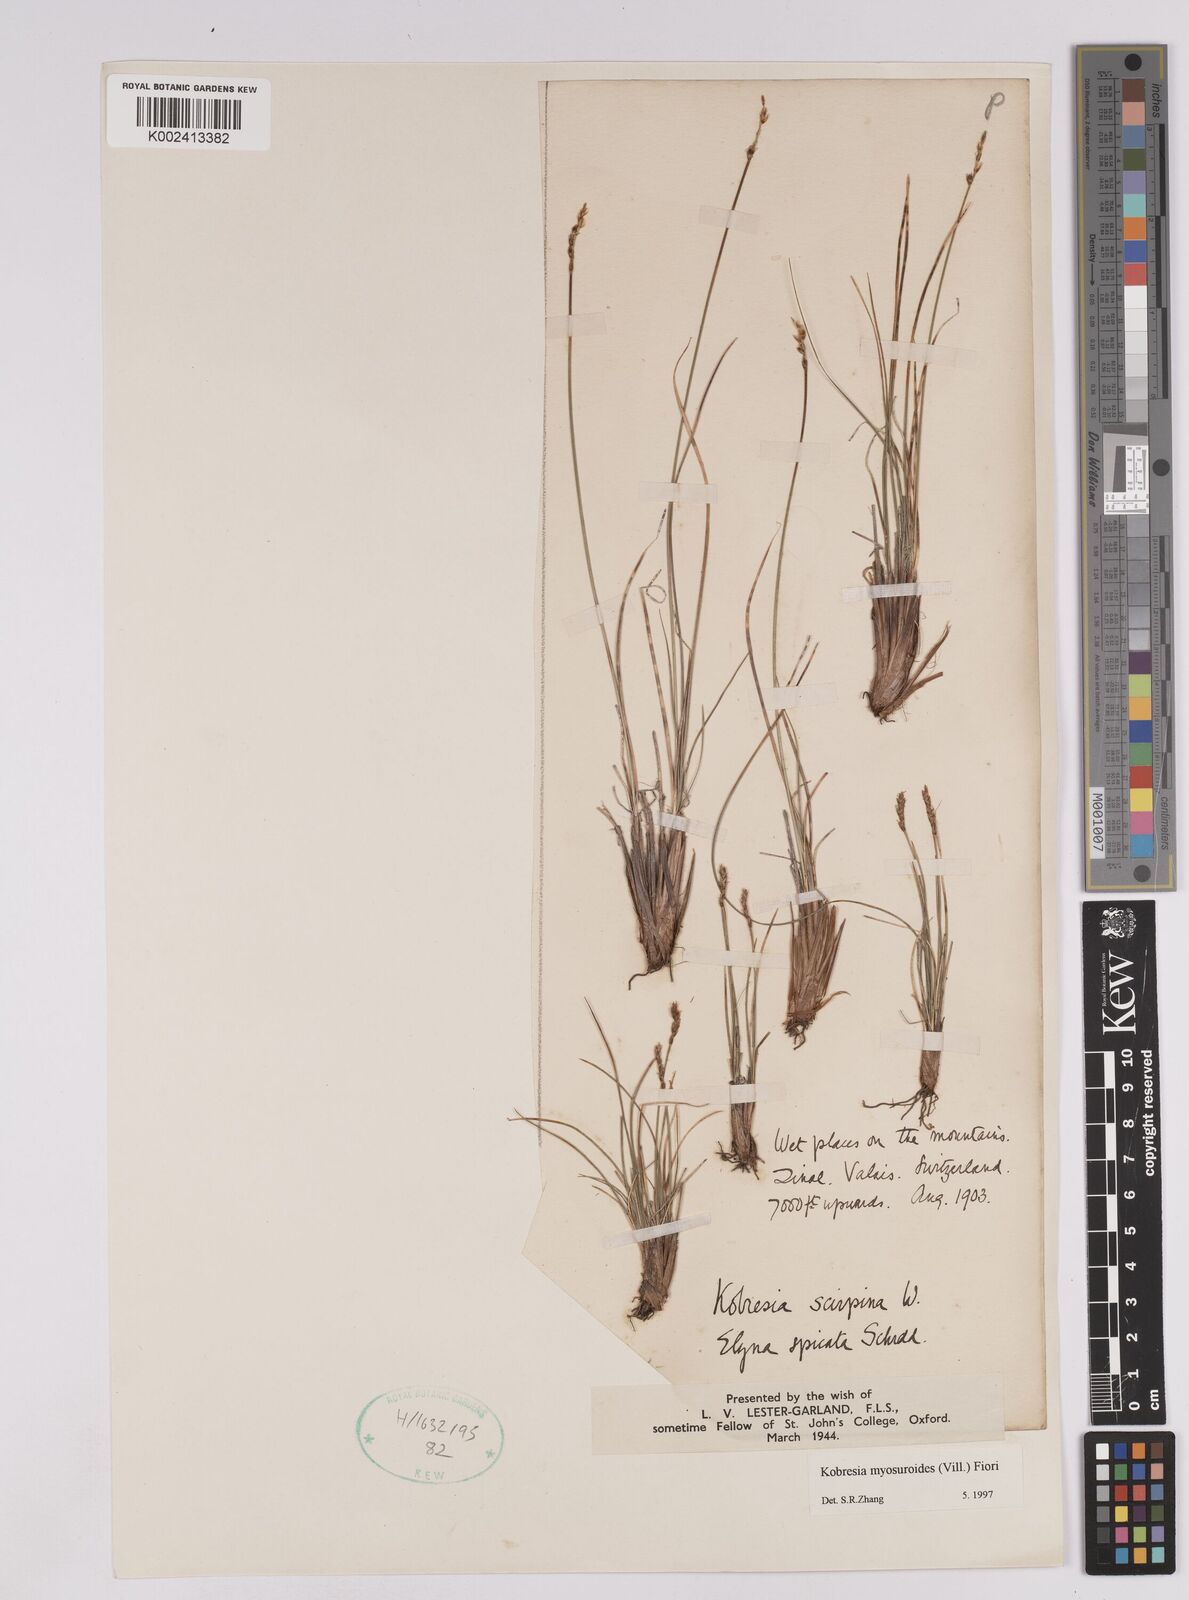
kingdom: Plantae
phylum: Tracheophyta
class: Liliopsida
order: Poales
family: Cyperaceae
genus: Carex
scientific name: Carex myosuroides
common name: Bellard's bog sedge
